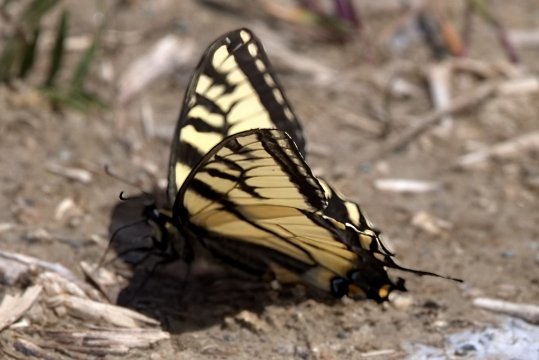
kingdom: Animalia
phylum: Arthropoda
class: Insecta
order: Lepidoptera
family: Papilionidae
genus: Pterourus
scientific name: Pterourus canadensis
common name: Canadian Tiger Swallowtail
